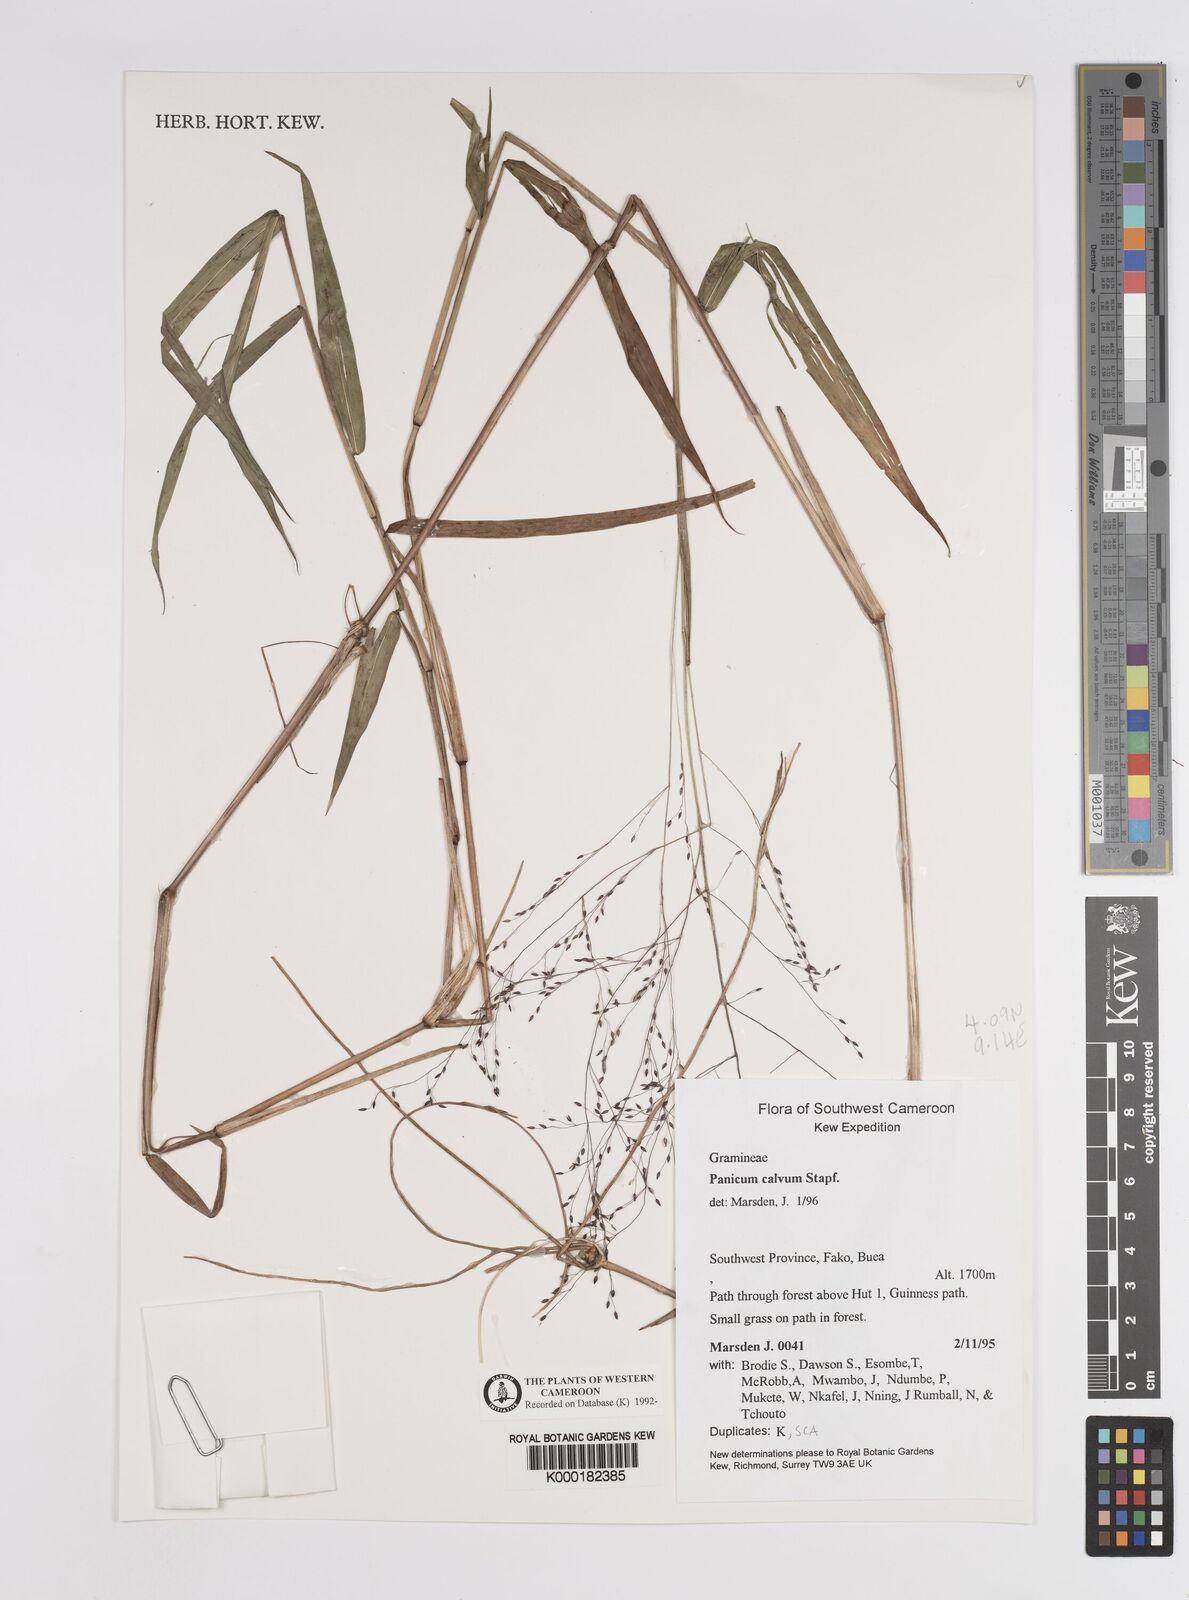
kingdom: Plantae
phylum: Tracheophyta
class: Liliopsida
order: Poales
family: Poaceae
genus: Panicum
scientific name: Panicum calvum
